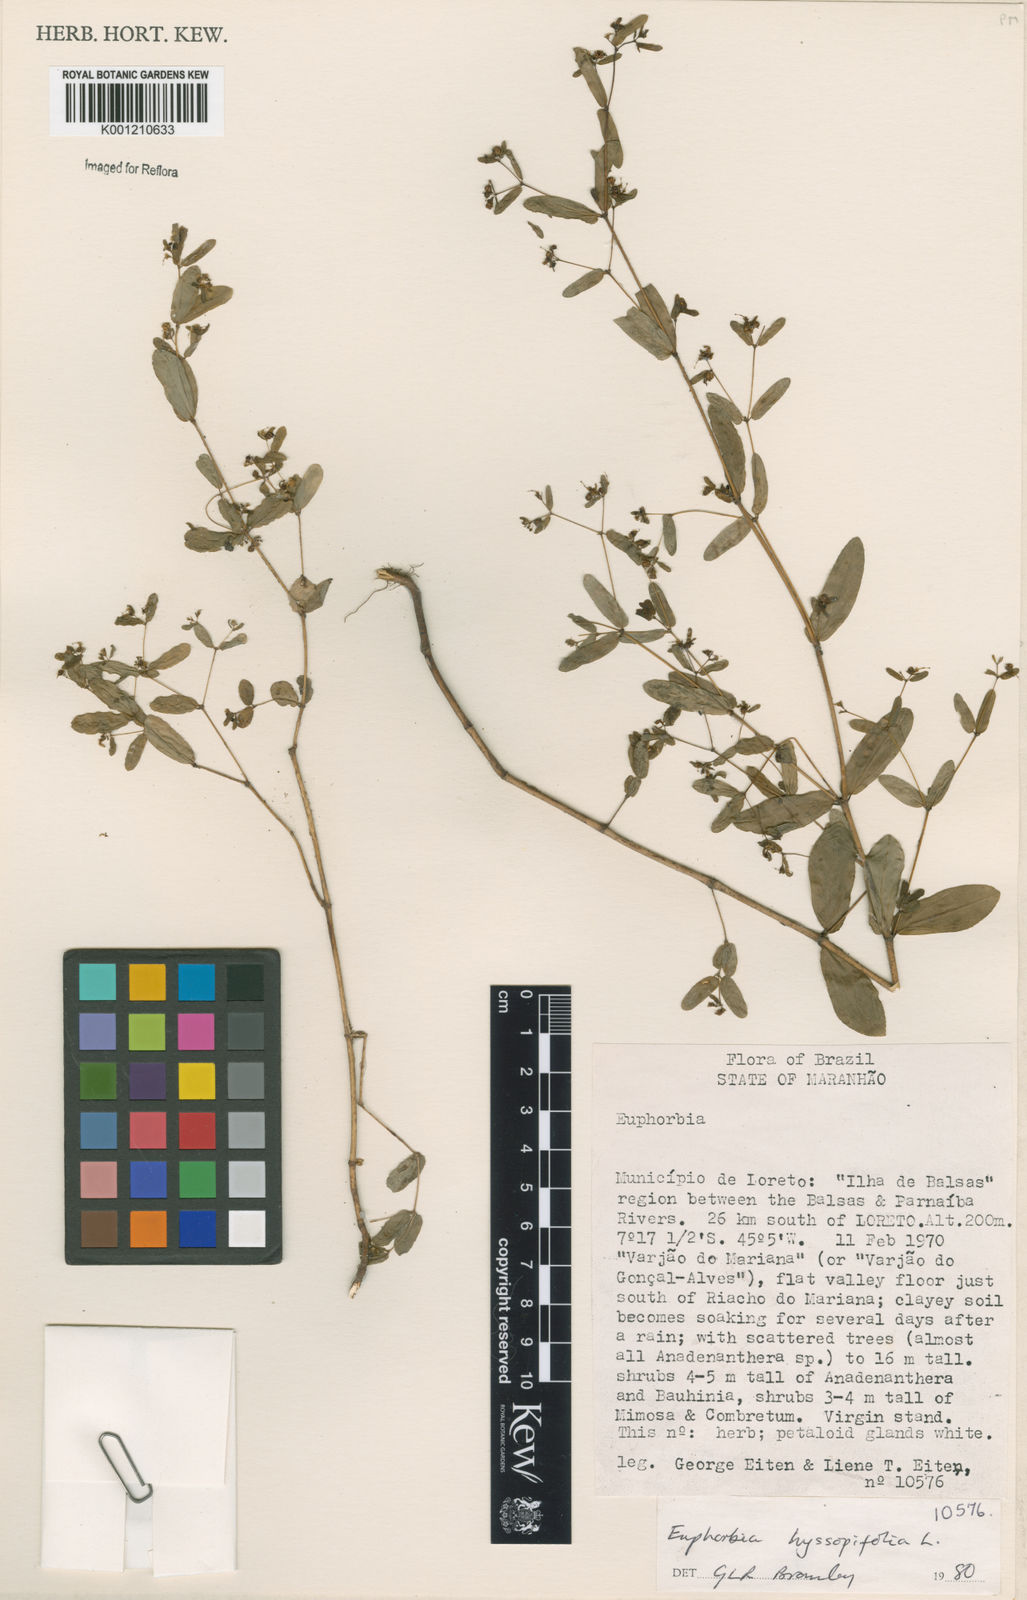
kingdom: Plantae
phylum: Tracheophyta
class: Magnoliopsida
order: Malpighiales
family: Euphorbiaceae
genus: Euphorbia
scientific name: Euphorbia hyssopifolia
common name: Hyssopleaf sandmat
